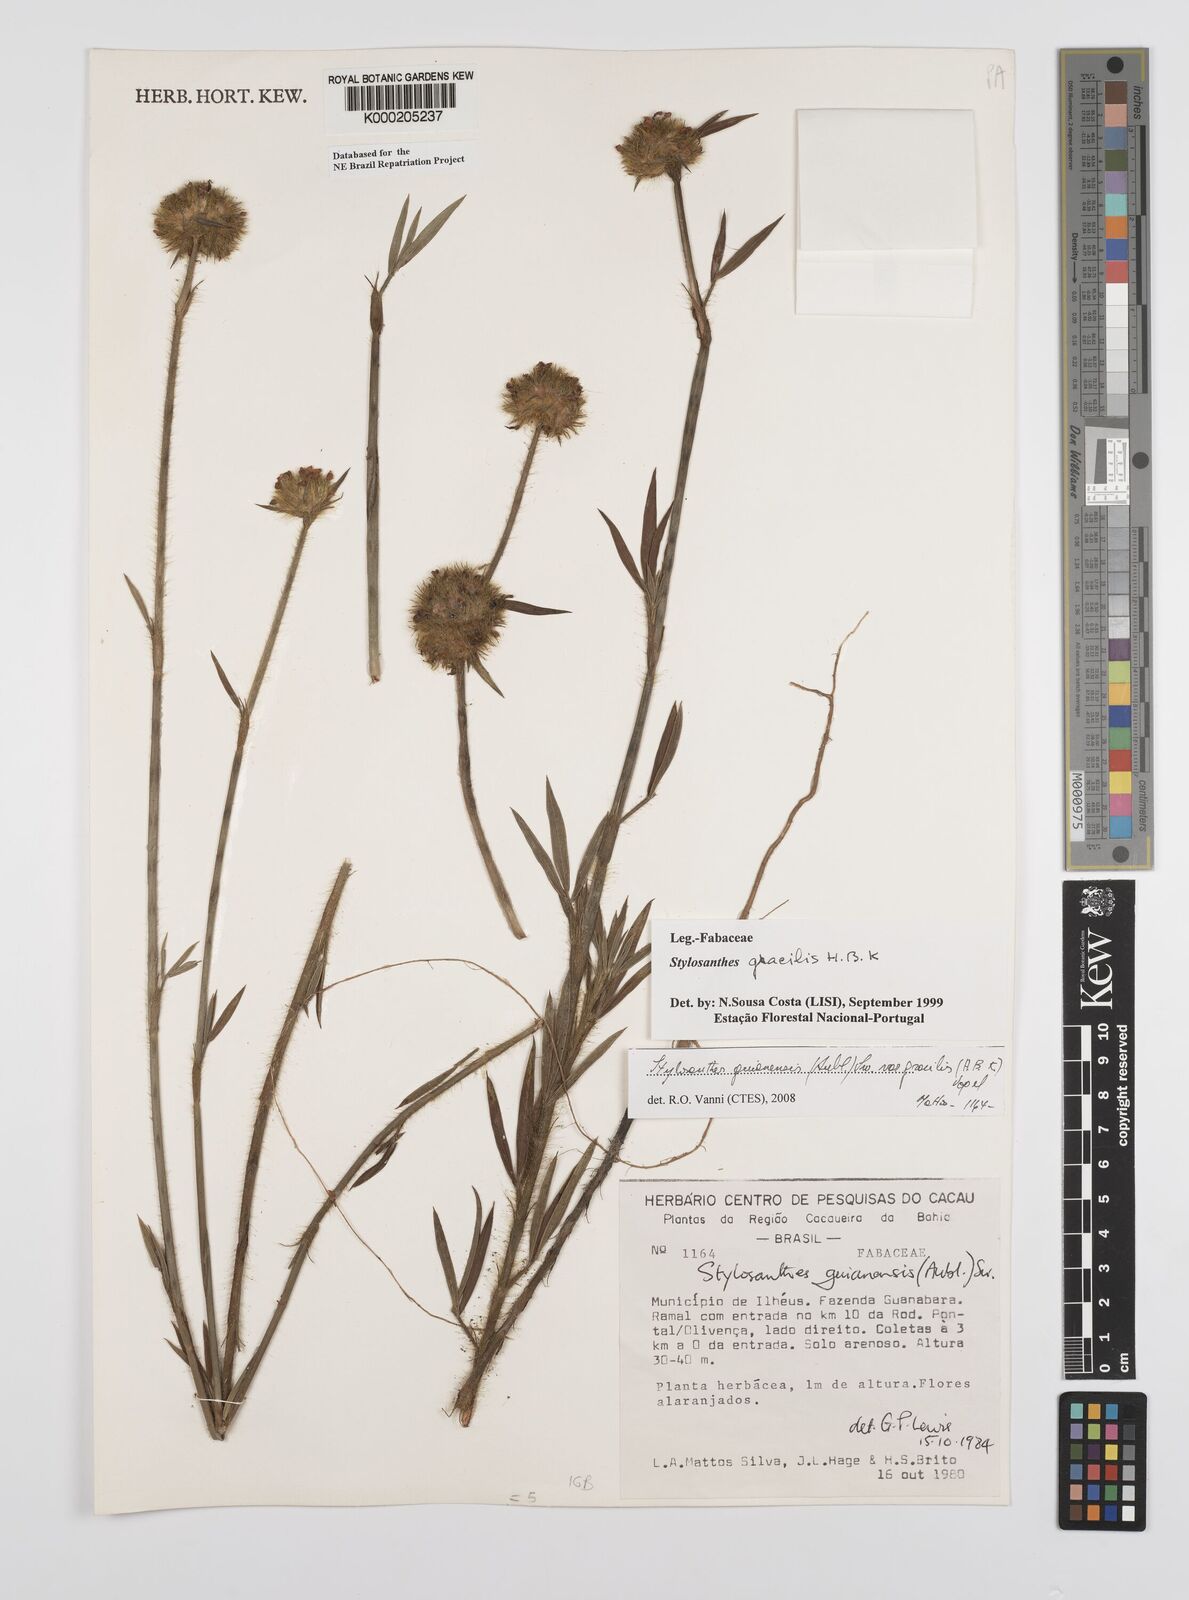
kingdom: Plantae
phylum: Tracheophyta
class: Magnoliopsida
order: Fabales
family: Fabaceae
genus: Stylosanthes
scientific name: Stylosanthes guianensis
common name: Pencil flower
